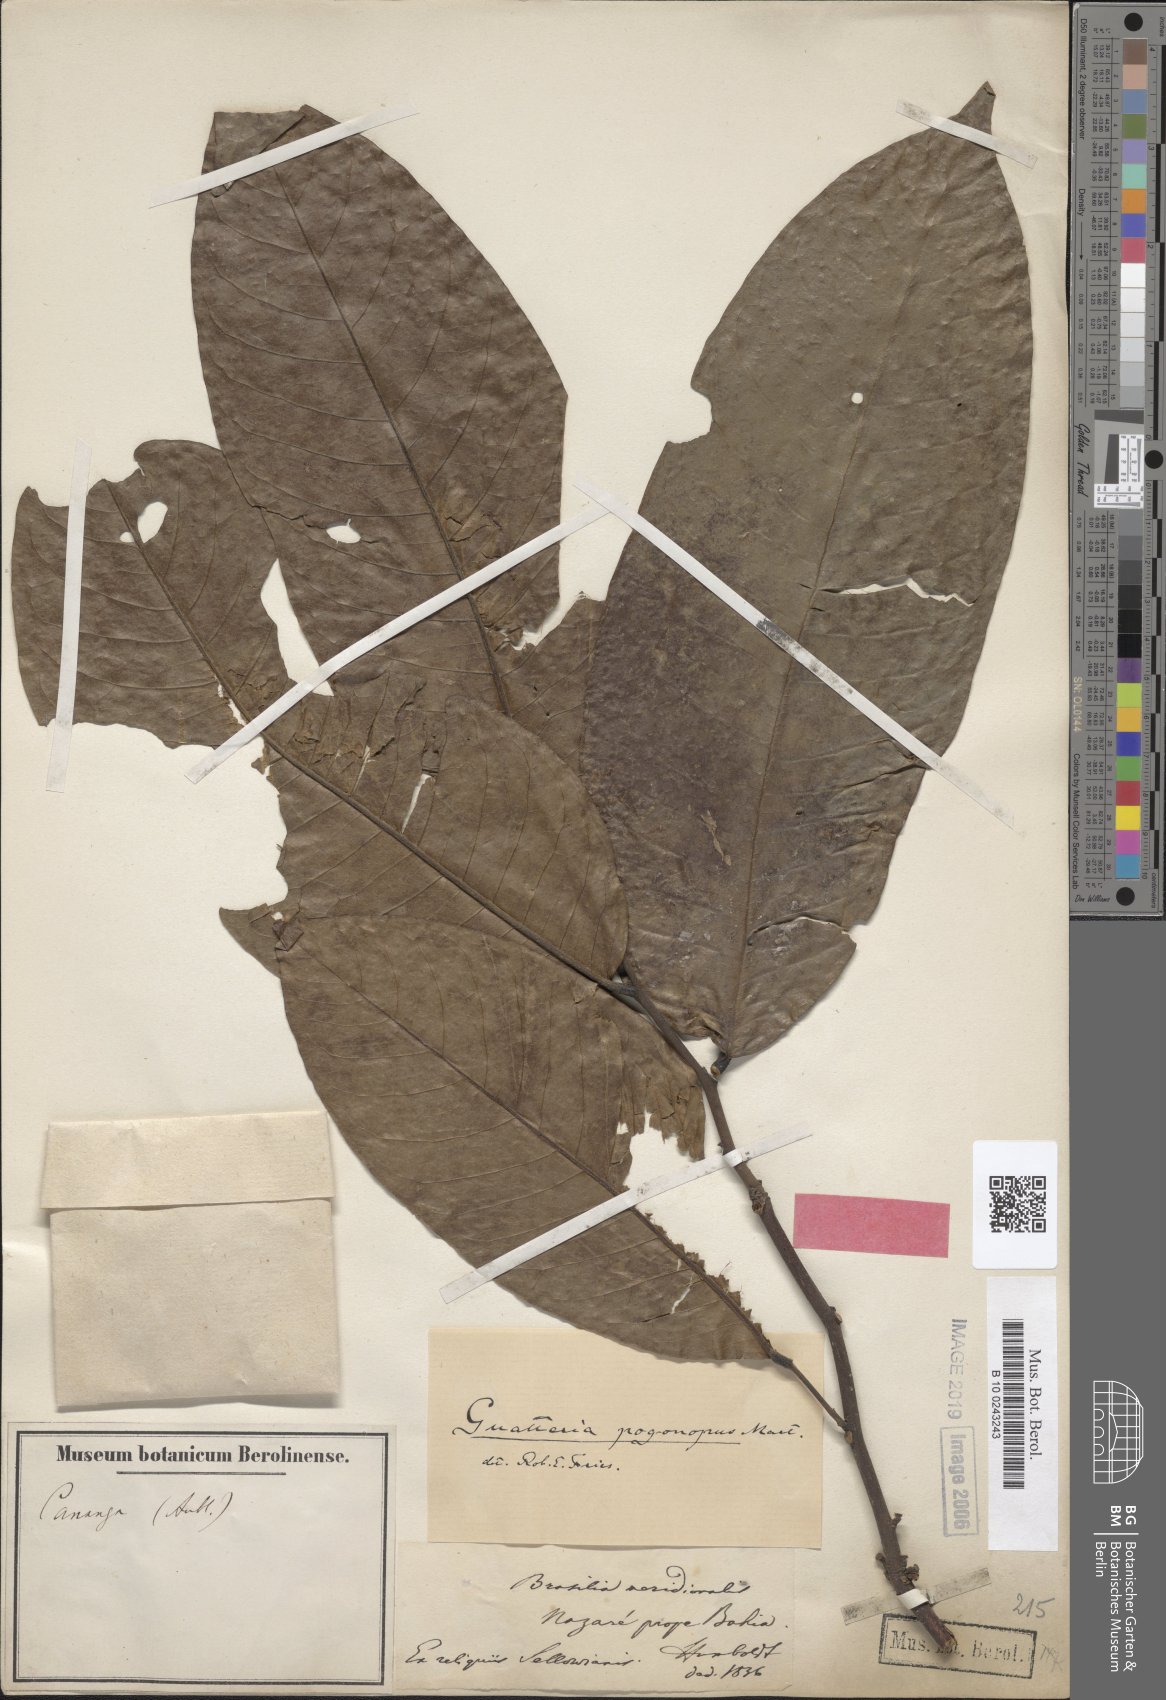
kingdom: Plantae
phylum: Tracheophyta
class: Magnoliopsida
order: Magnoliales
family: Annonaceae
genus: Guatteria
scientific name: Guatteria pogonopus
